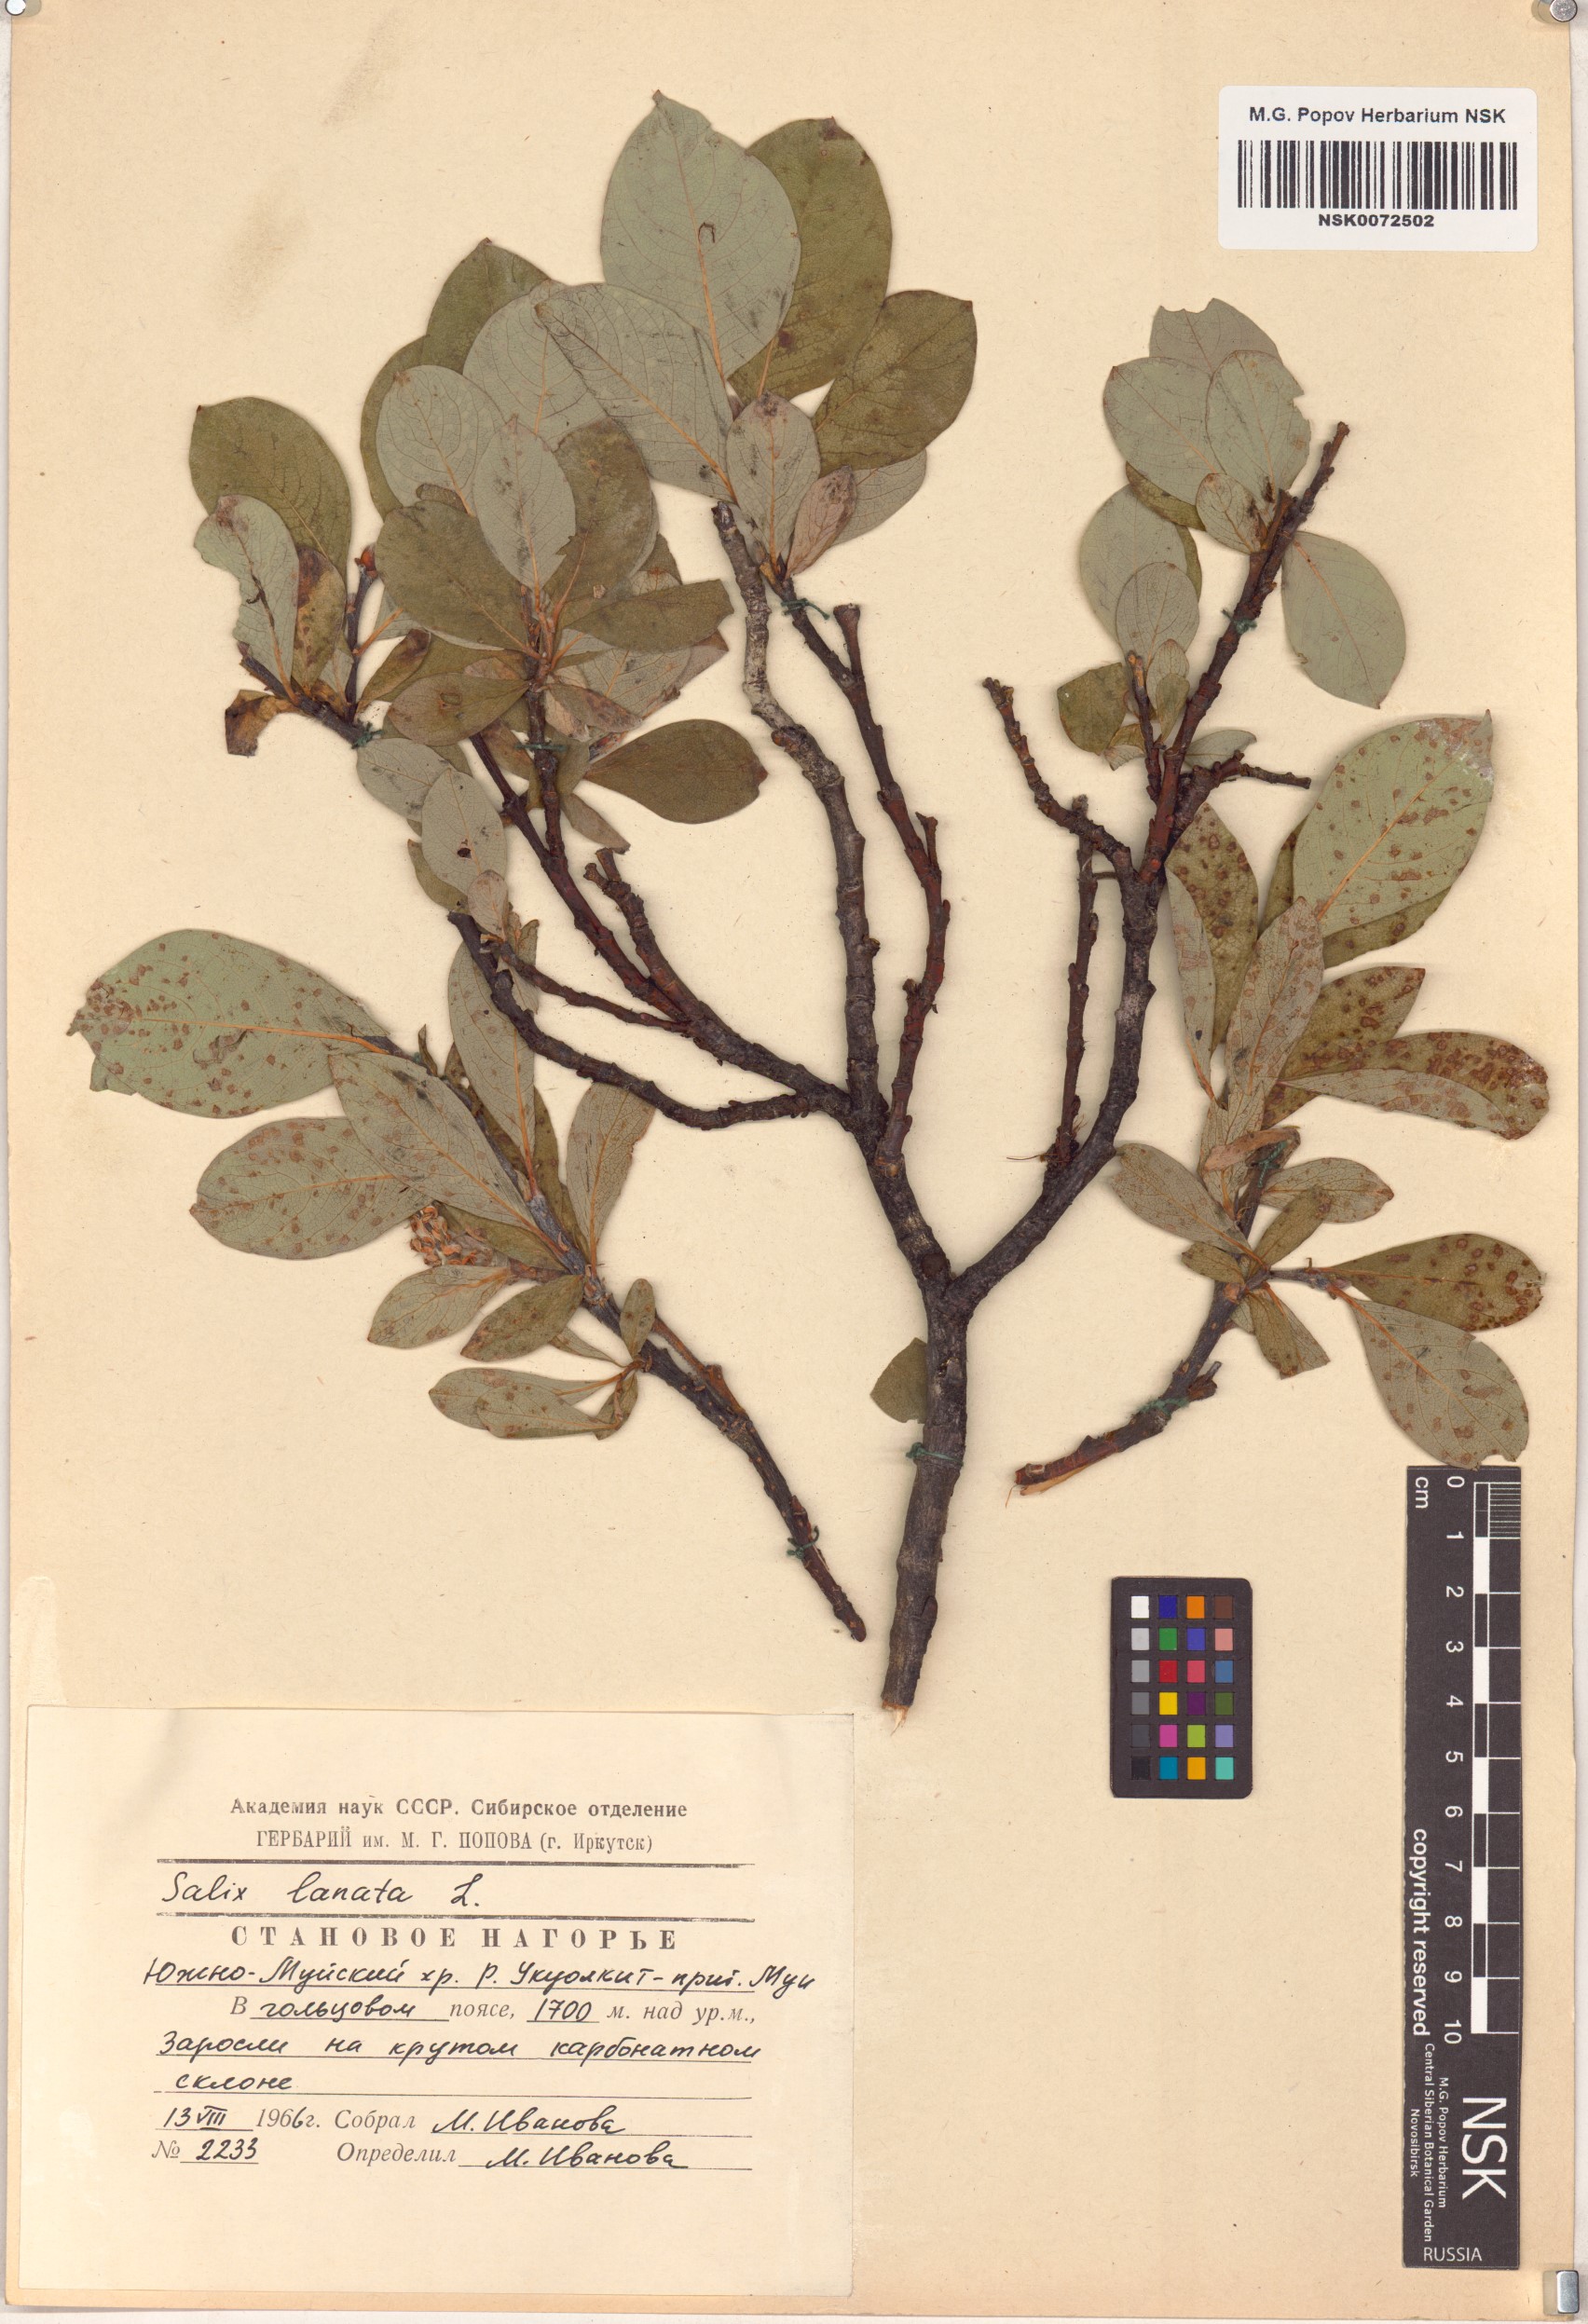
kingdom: Plantae
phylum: Tracheophyta
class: Magnoliopsida
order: Malpighiales
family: Salicaceae
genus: Salix
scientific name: Salix lanata
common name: Woolly willow
